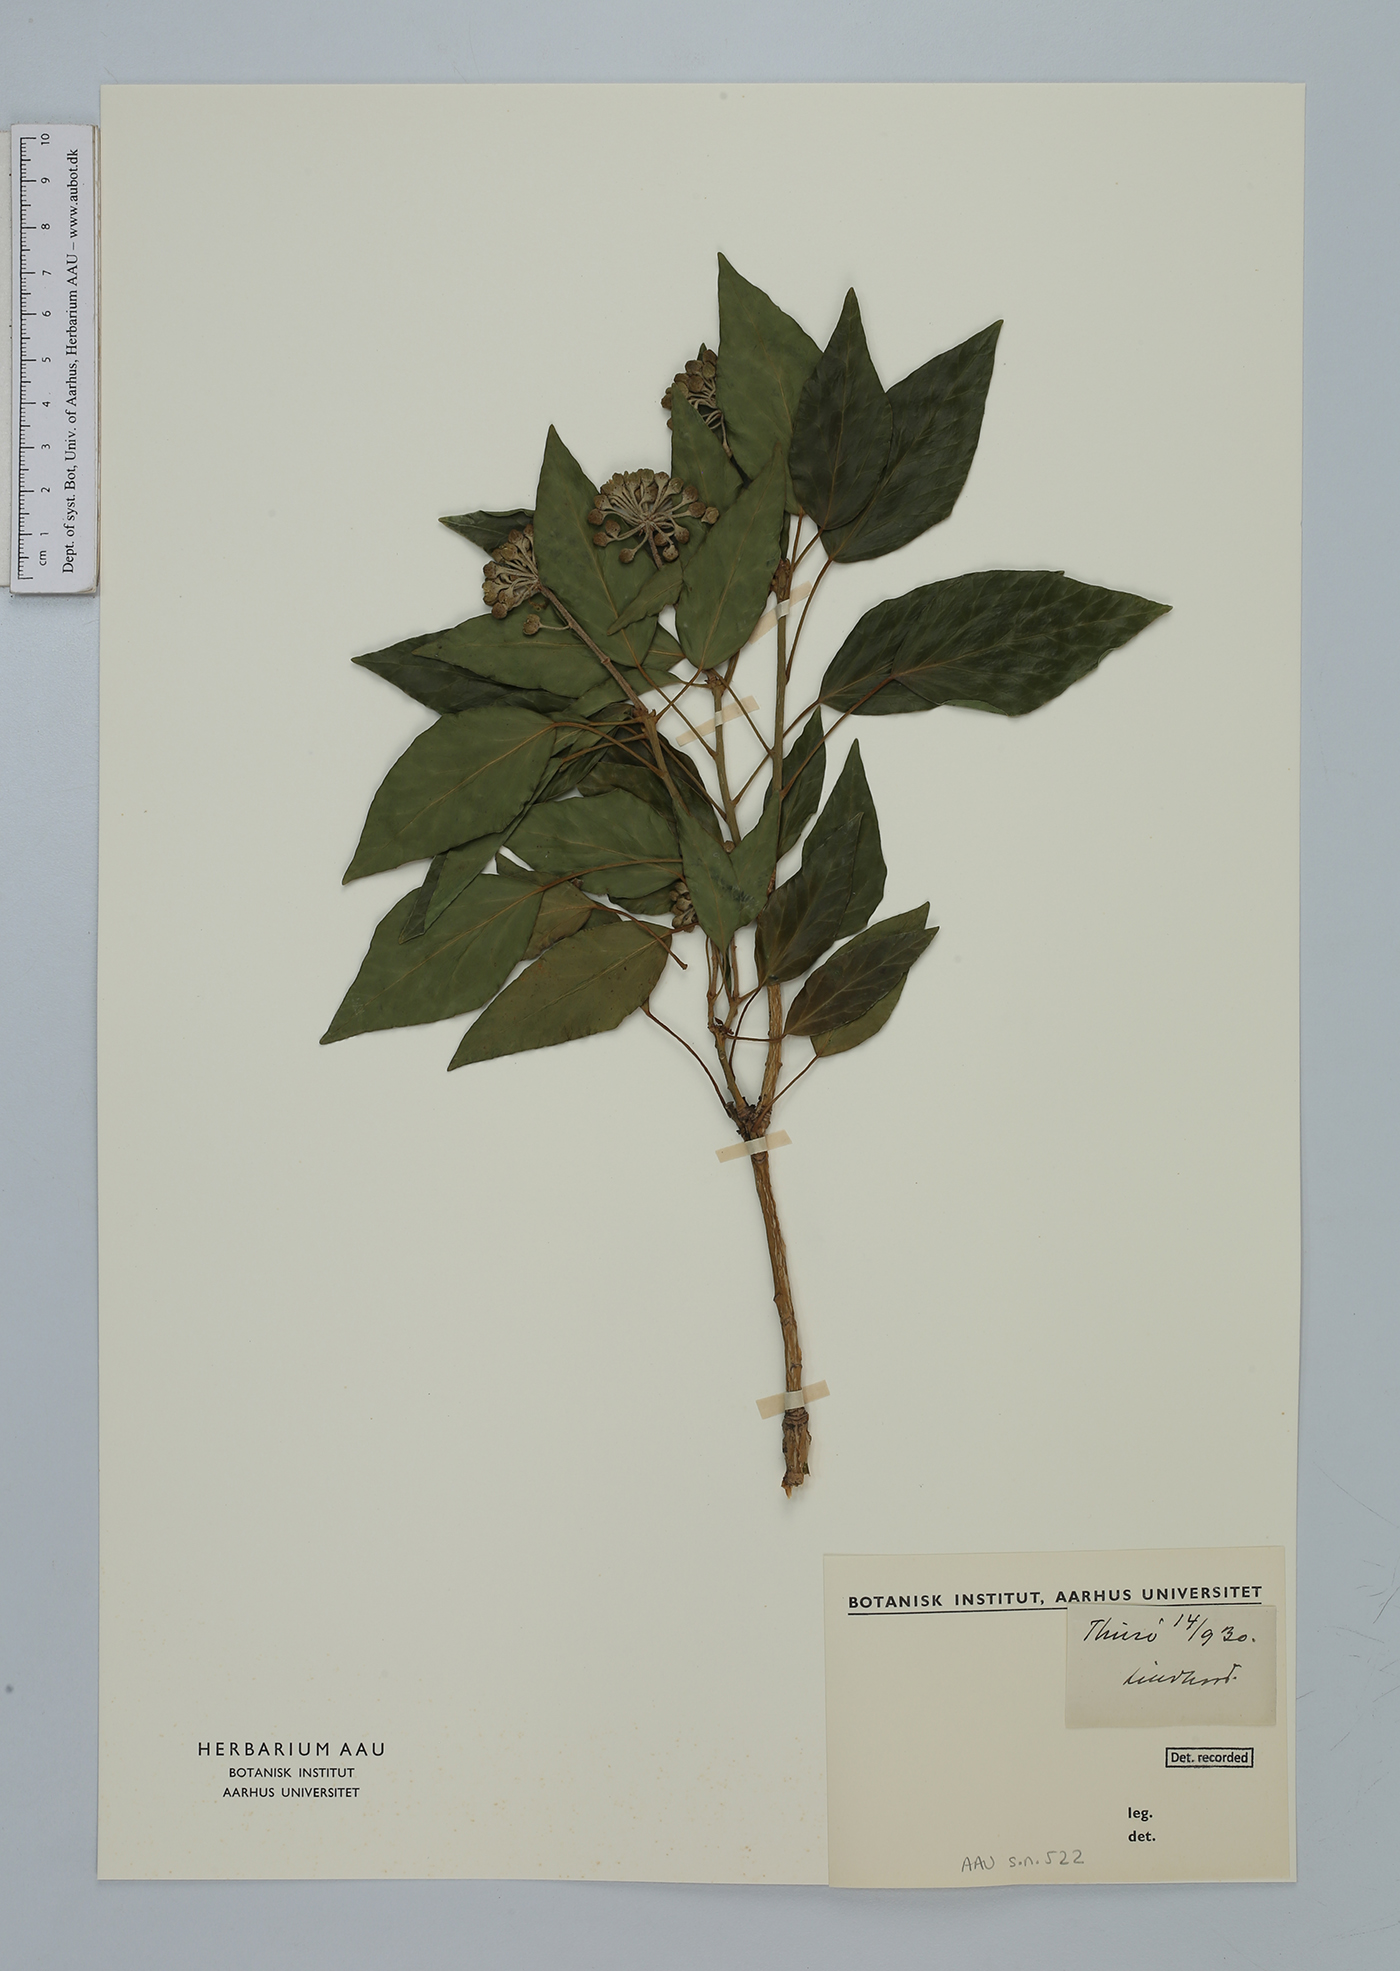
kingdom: Plantae
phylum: Tracheophyta
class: Magnoliopsida
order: Apiales
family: Araliaceae
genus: Hedera
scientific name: Hedera helix
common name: Ivy
